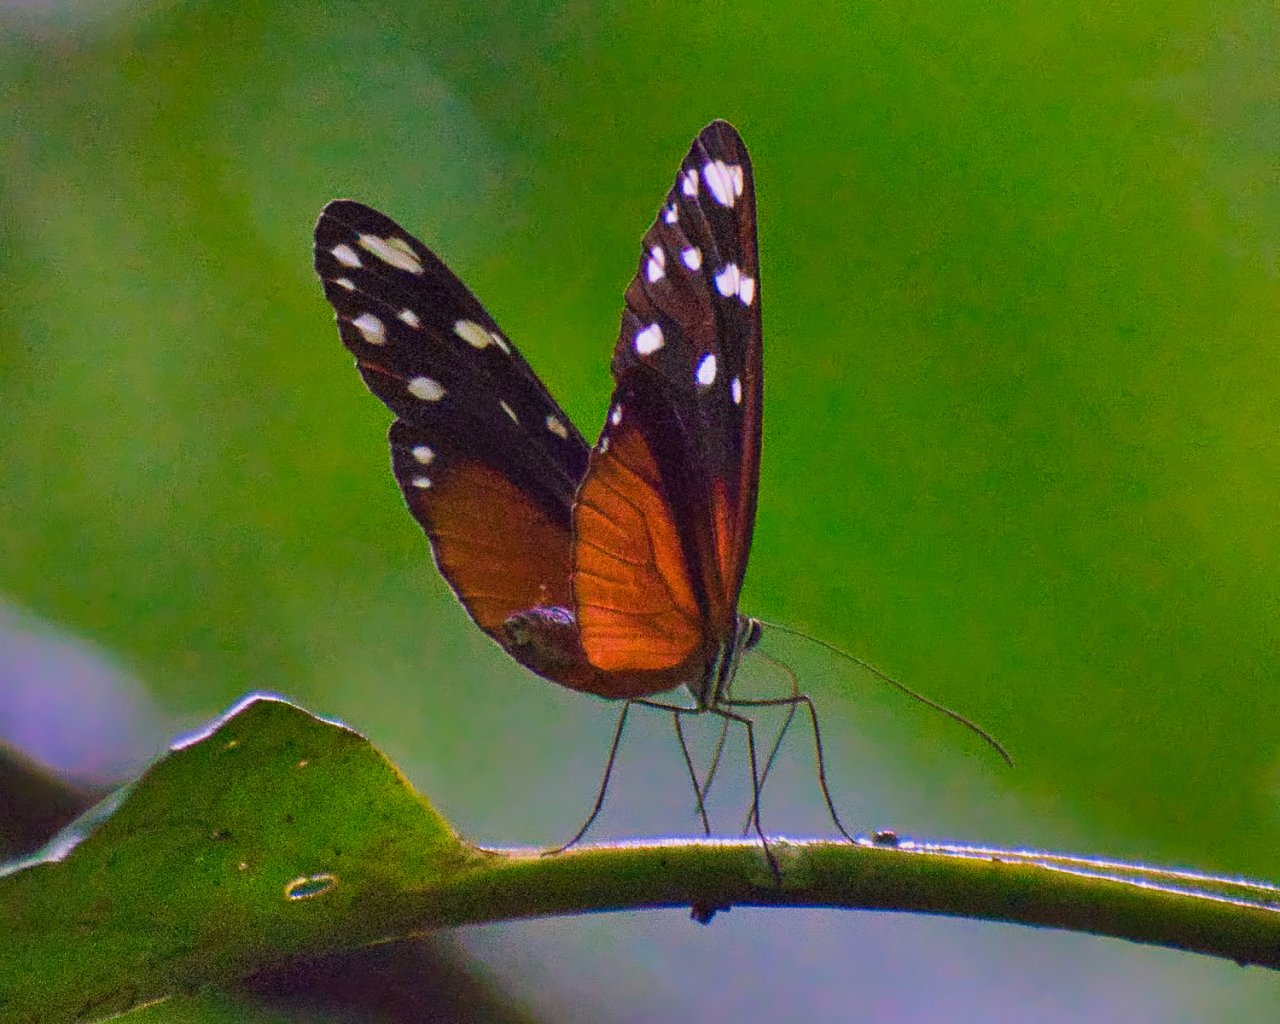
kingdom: Animalia
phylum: Arthropoda
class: Insecta
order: Lepidoptera
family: Nymphalidae
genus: Hyposcada
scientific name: Hyposcada virginiana
